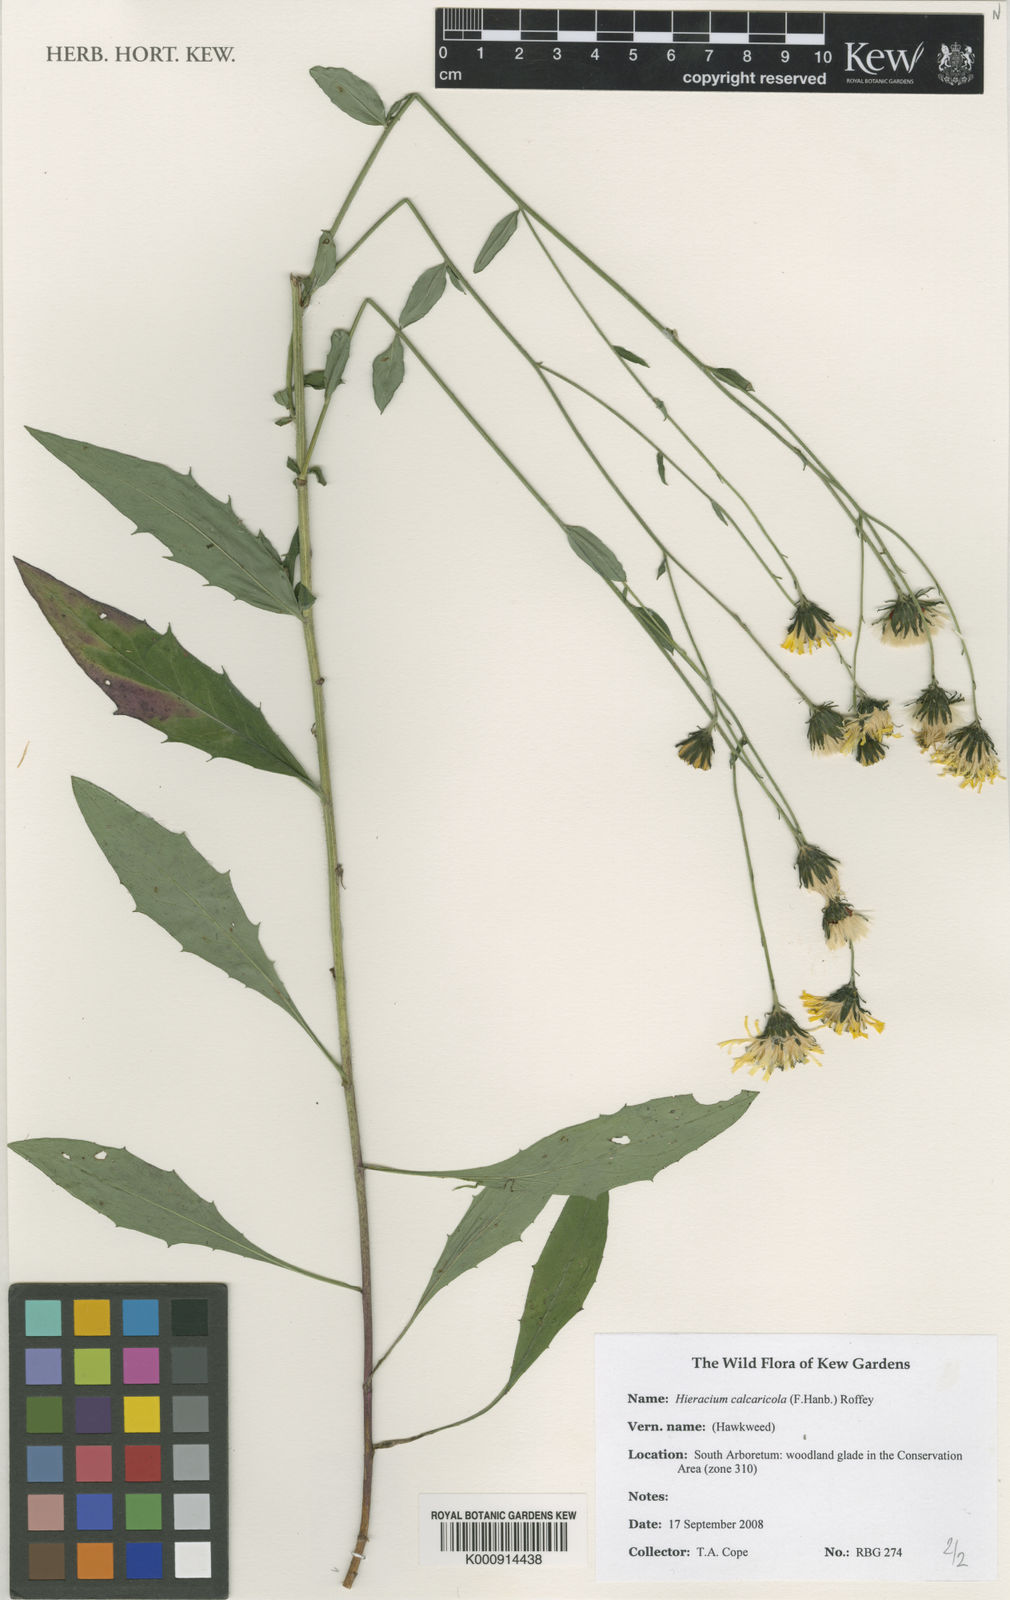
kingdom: Plantae
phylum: Tracheophyta
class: Magnoliopsida
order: Asterales
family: Asteraceae
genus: Hieracium
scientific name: Hieracium calcaricola
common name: Toothed hawkweed
